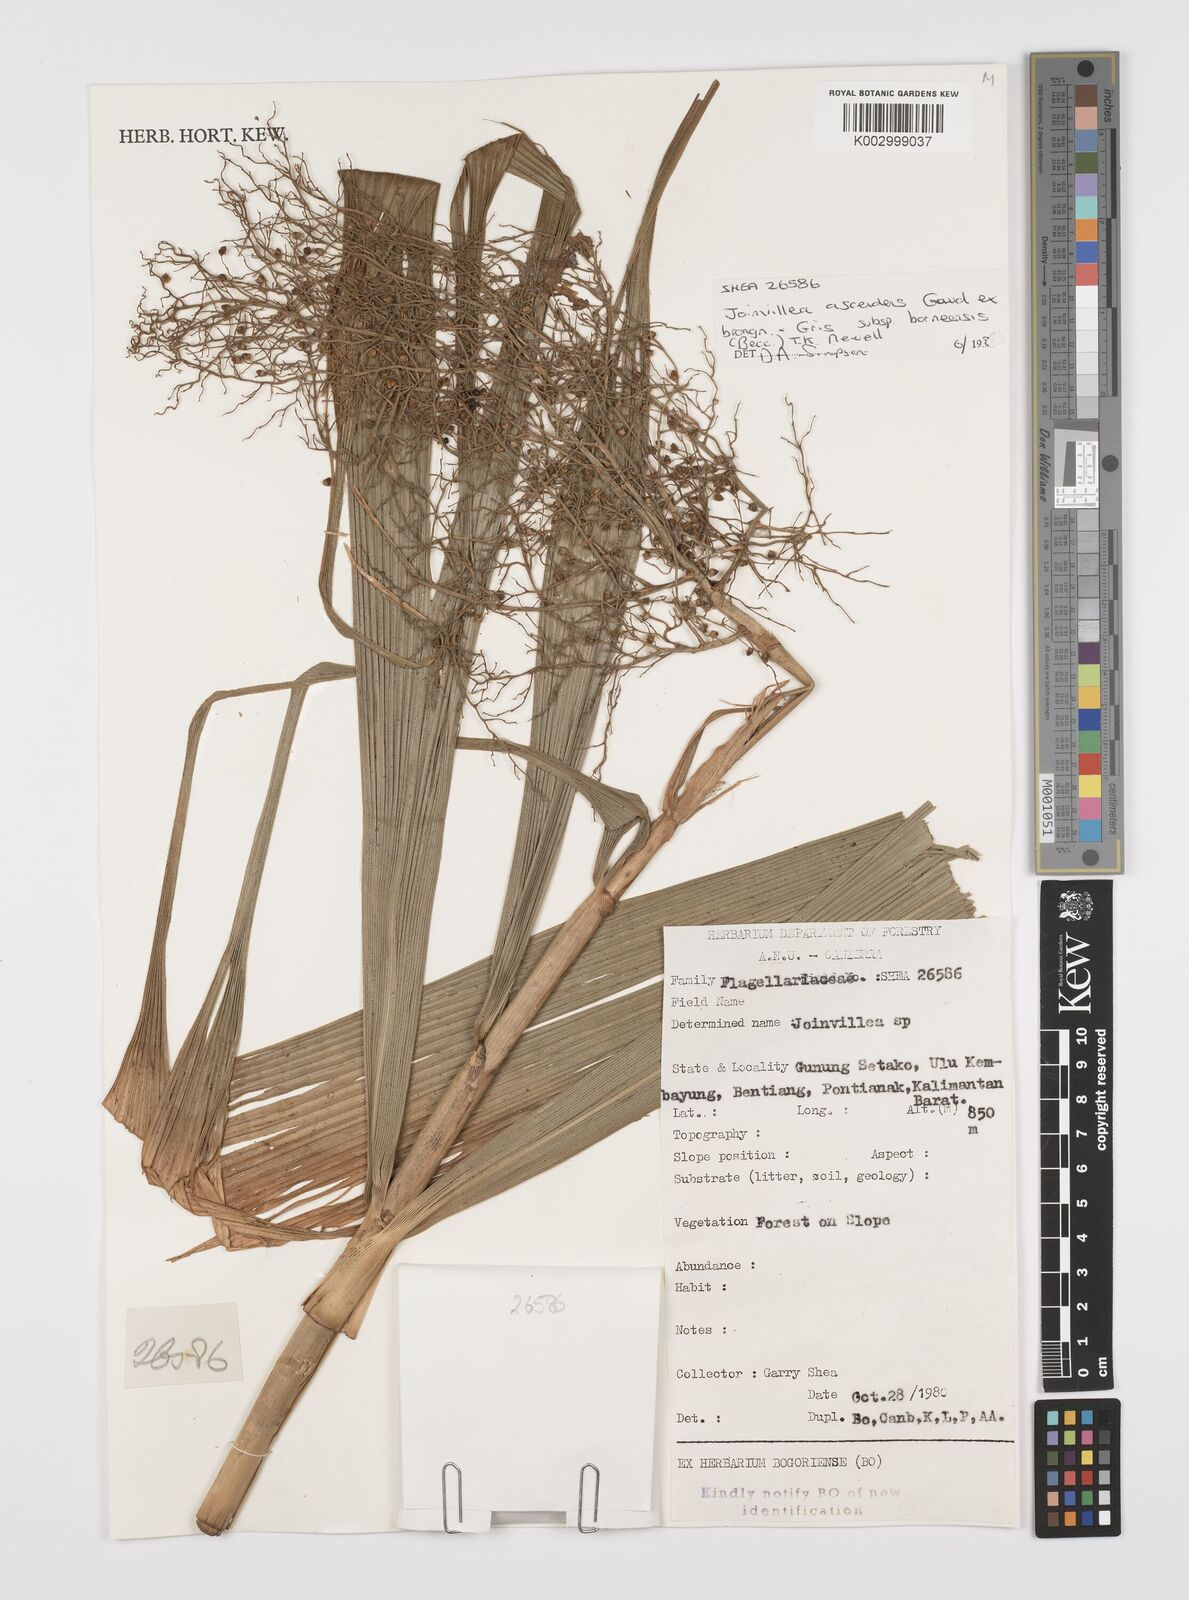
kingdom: Plantae
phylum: Tracheophyta
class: Liliopsida
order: Poales
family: Joinvilleaceae
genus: Joinvillea
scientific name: Joinvillea borneensis
